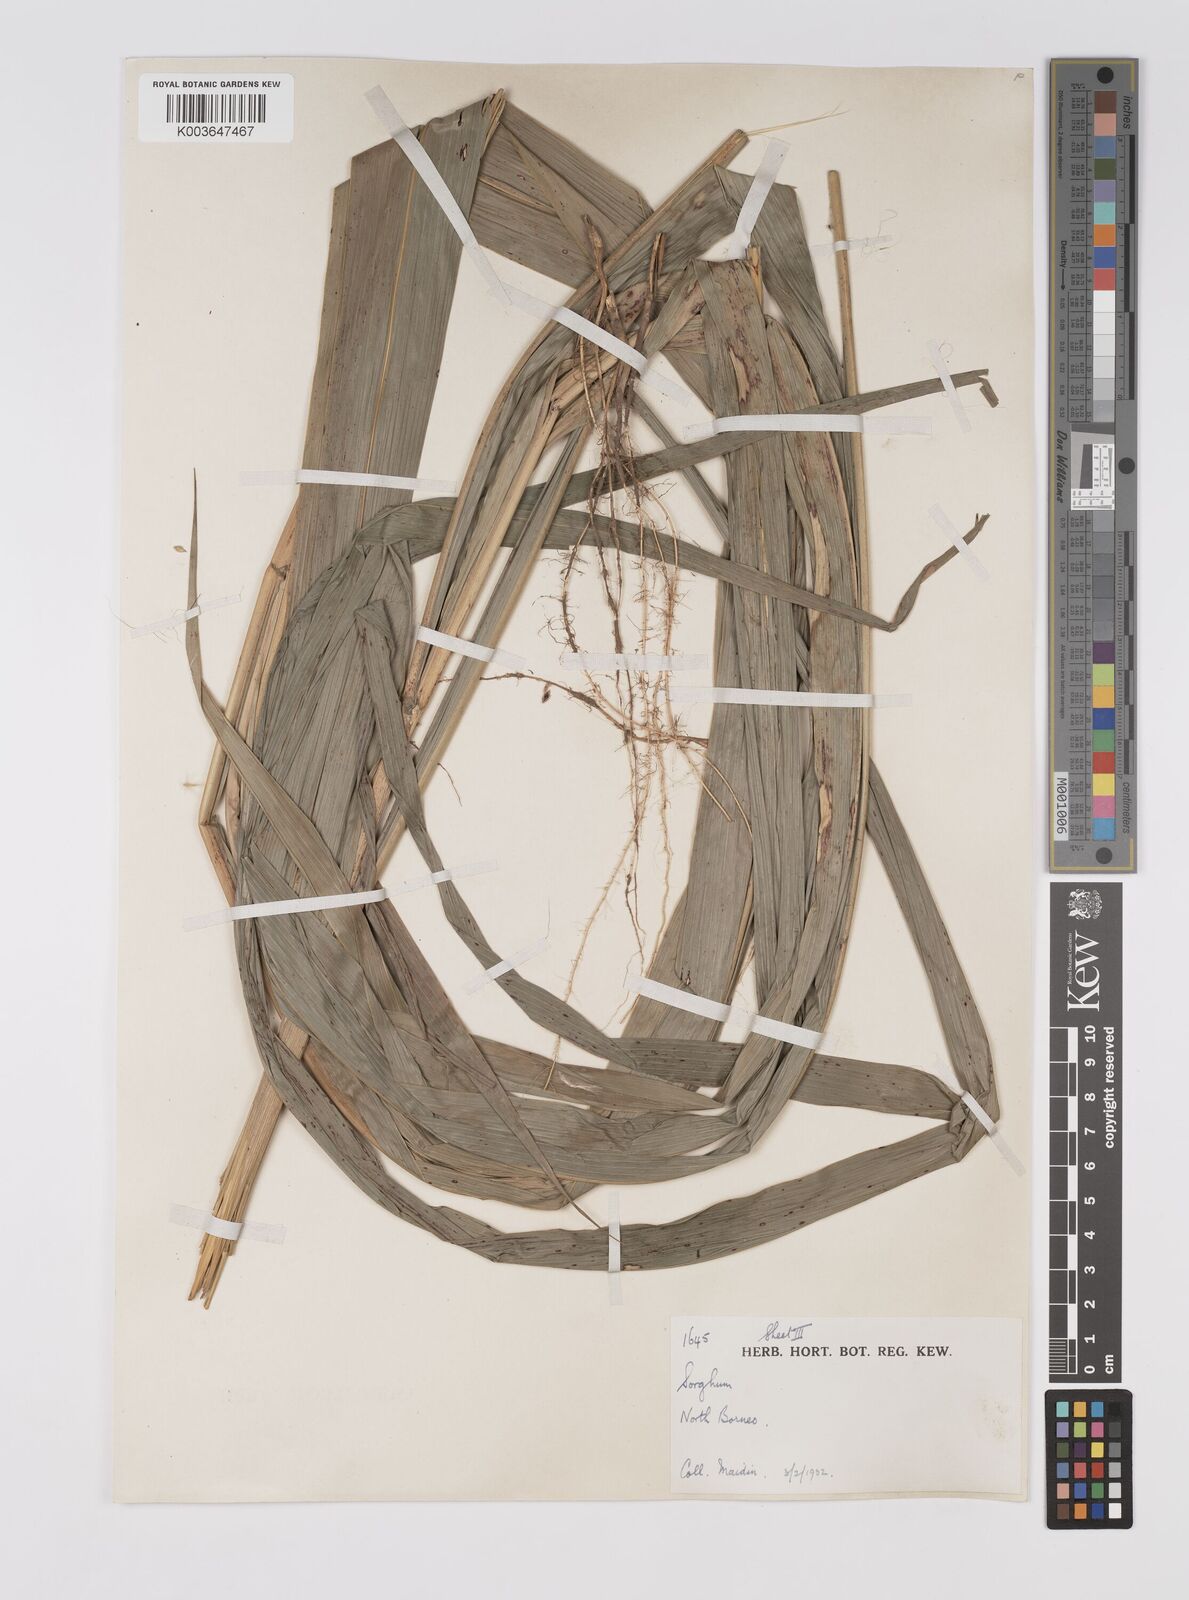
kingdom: Plantae
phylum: Tracheophyta
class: Liliopsida
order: Poales
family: Poaceae
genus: Sorghum
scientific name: Sorghum propinquum
